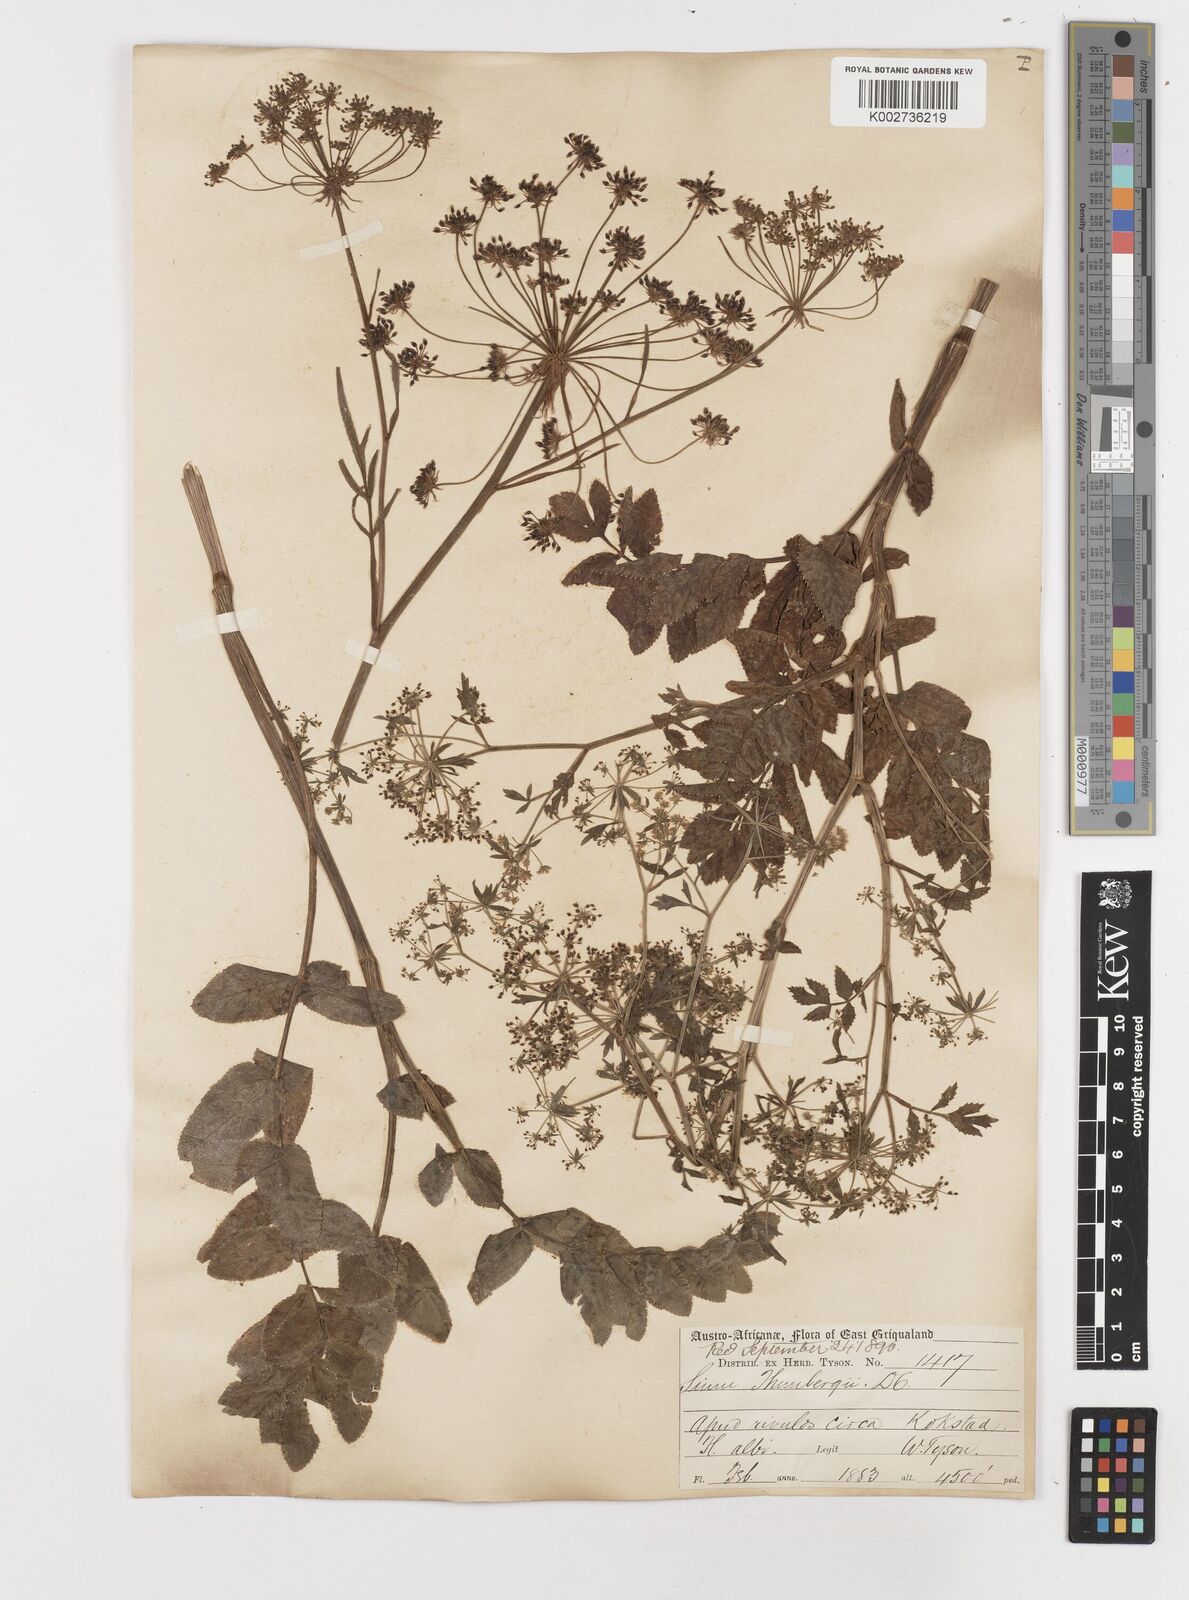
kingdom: Plantae
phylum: Tracheophyta
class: Magnoliopsida
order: Apiales
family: Apiaceae
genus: Berula
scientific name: Berula erecta
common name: Lesser water-parsnip
